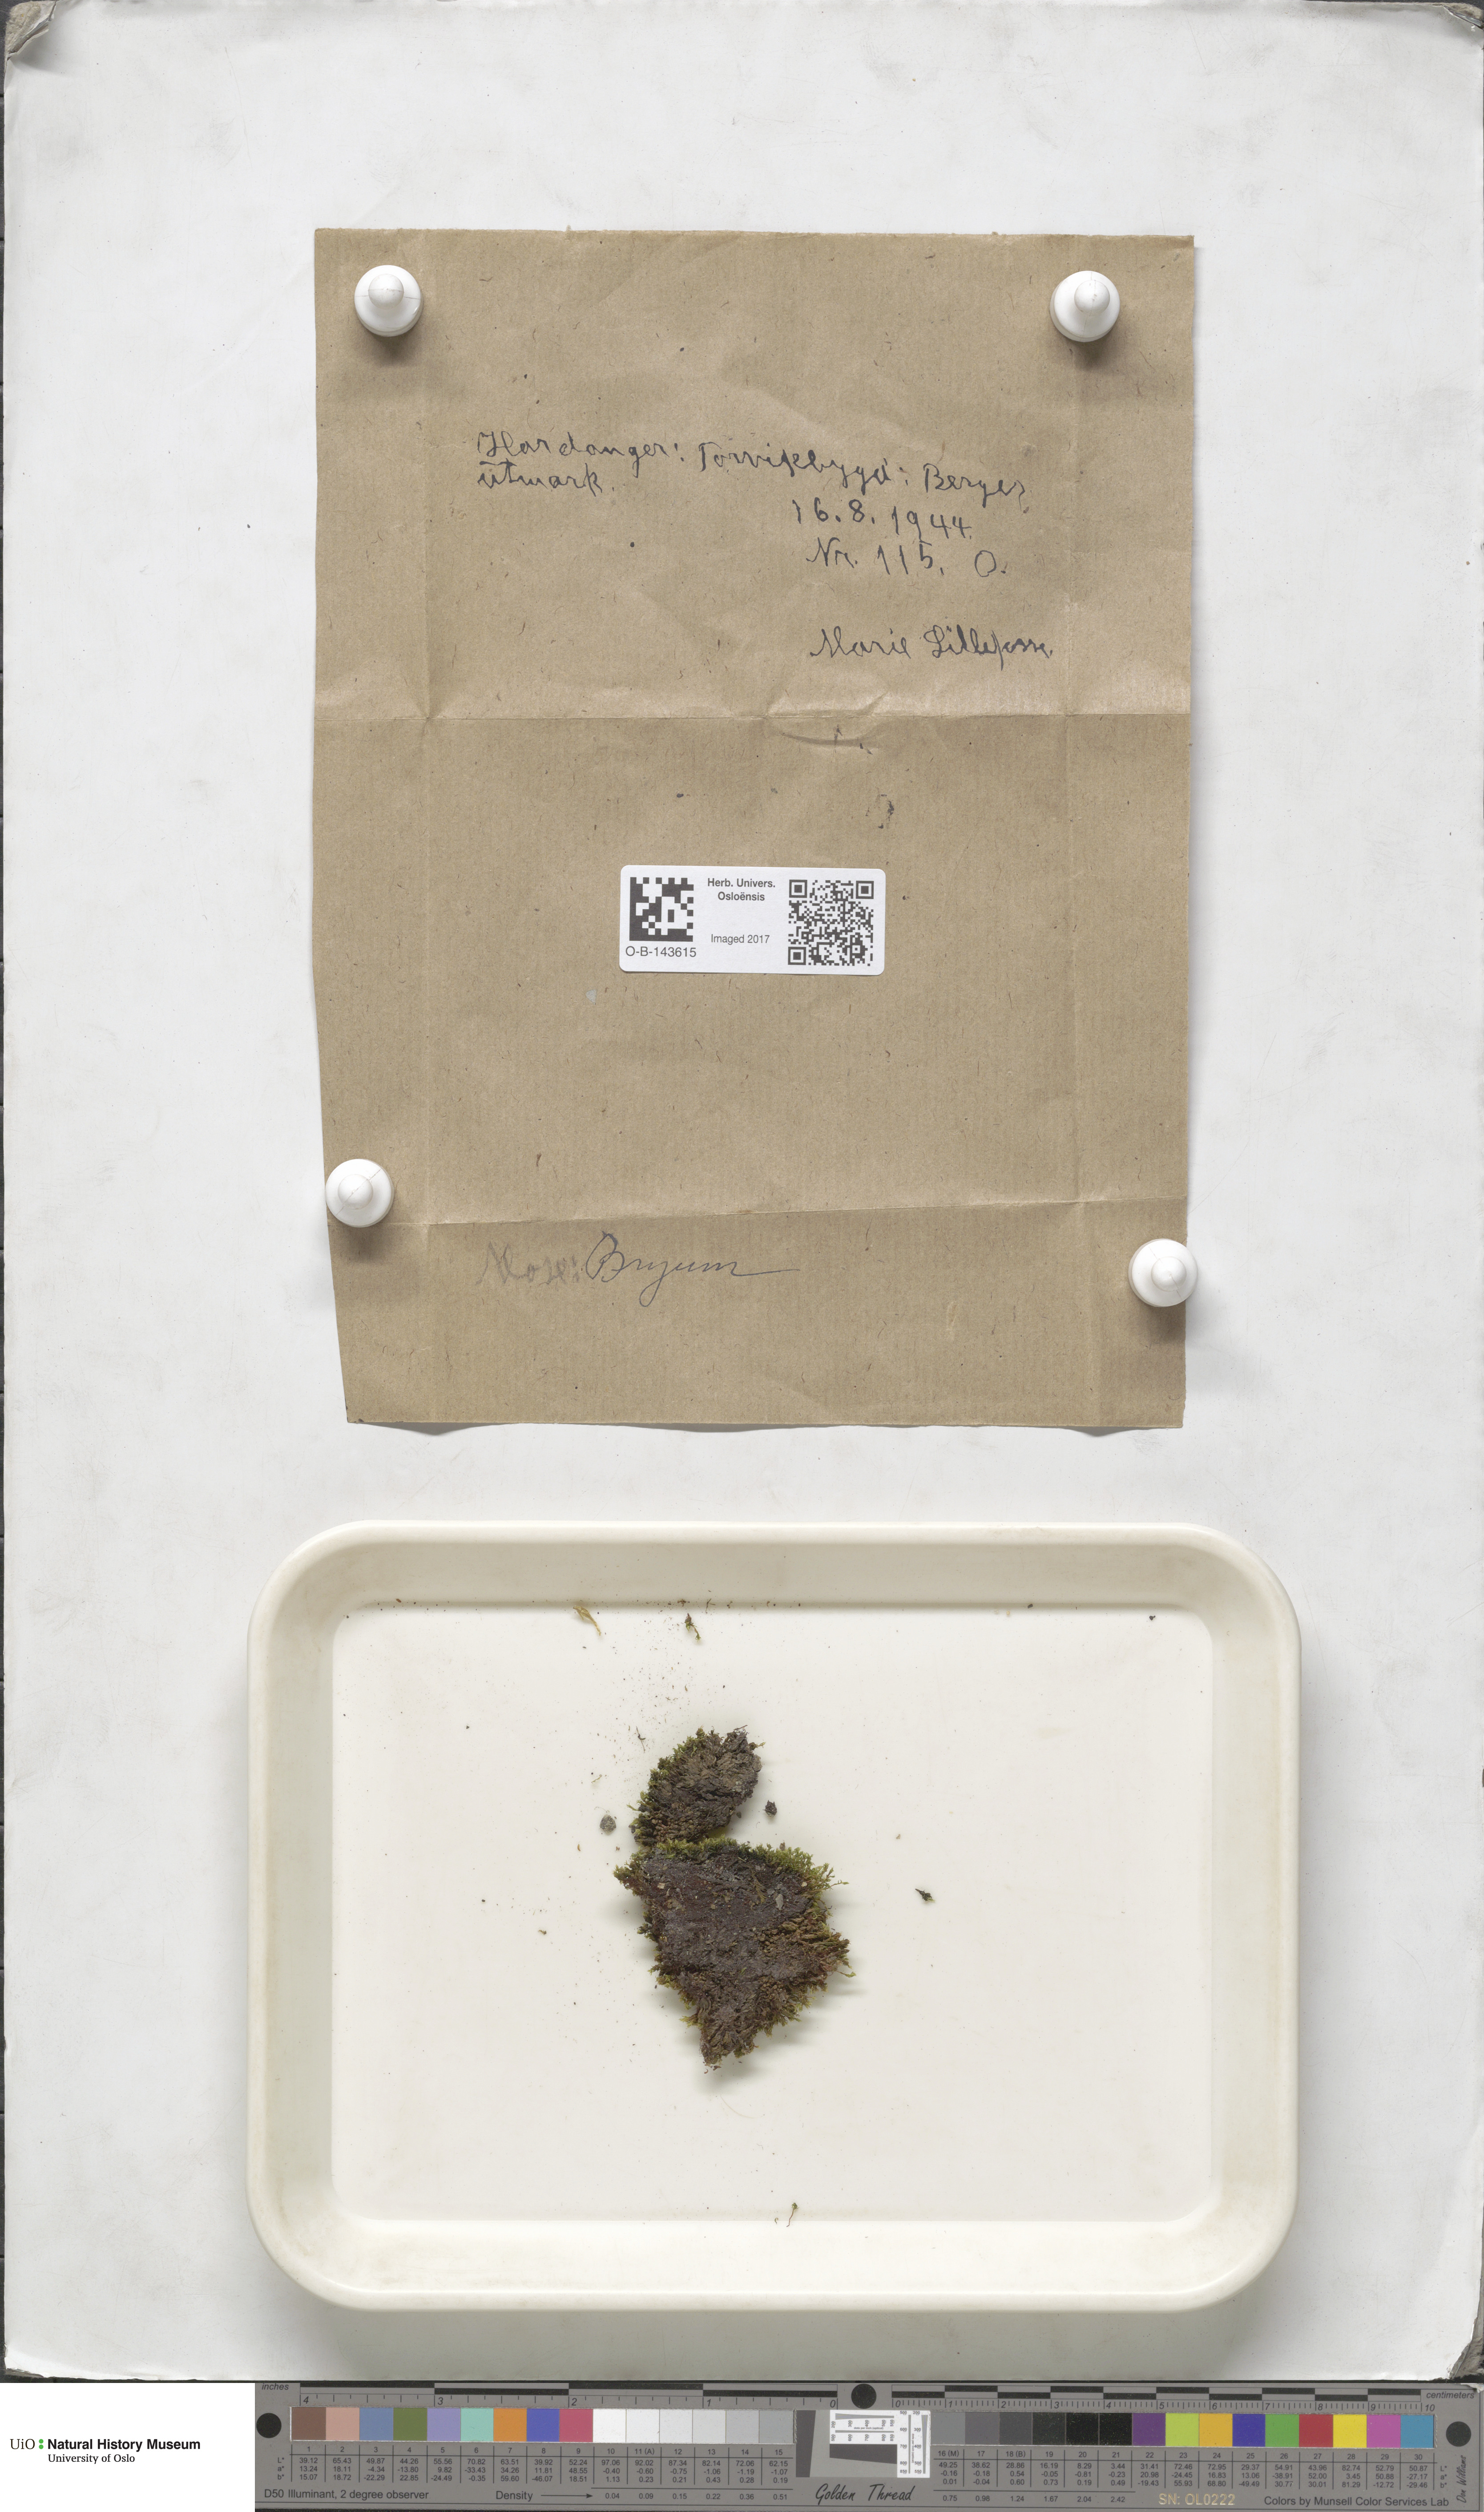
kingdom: Plantae
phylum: Bryophyta
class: Bryopsida
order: Bryales
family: Bryaceae
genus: Bryum
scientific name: Bryum
